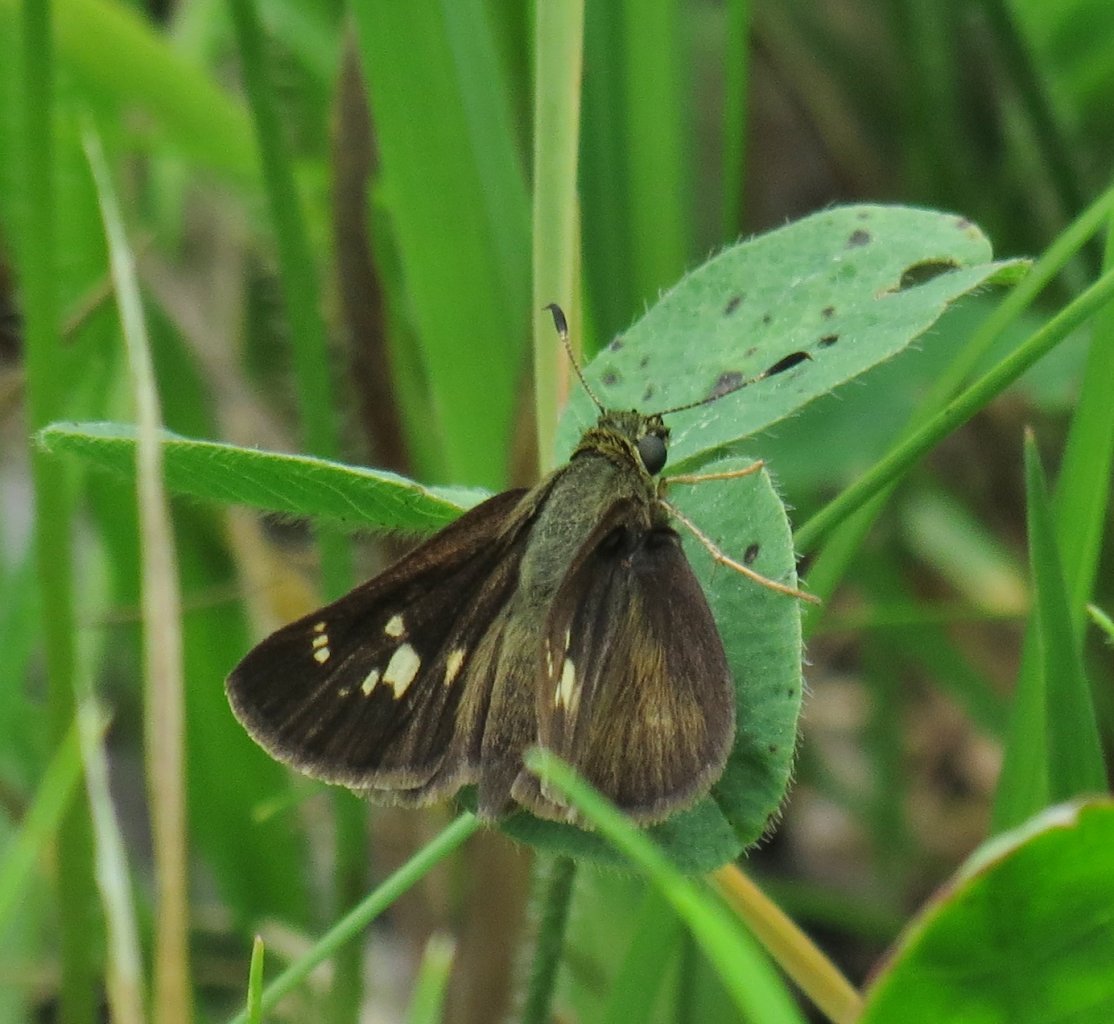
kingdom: Animalia
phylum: Arthropoda
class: Insecta
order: Lepidoptera
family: Hesperiidae
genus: Vernia
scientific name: Vernia verna
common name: Little Glassywing
